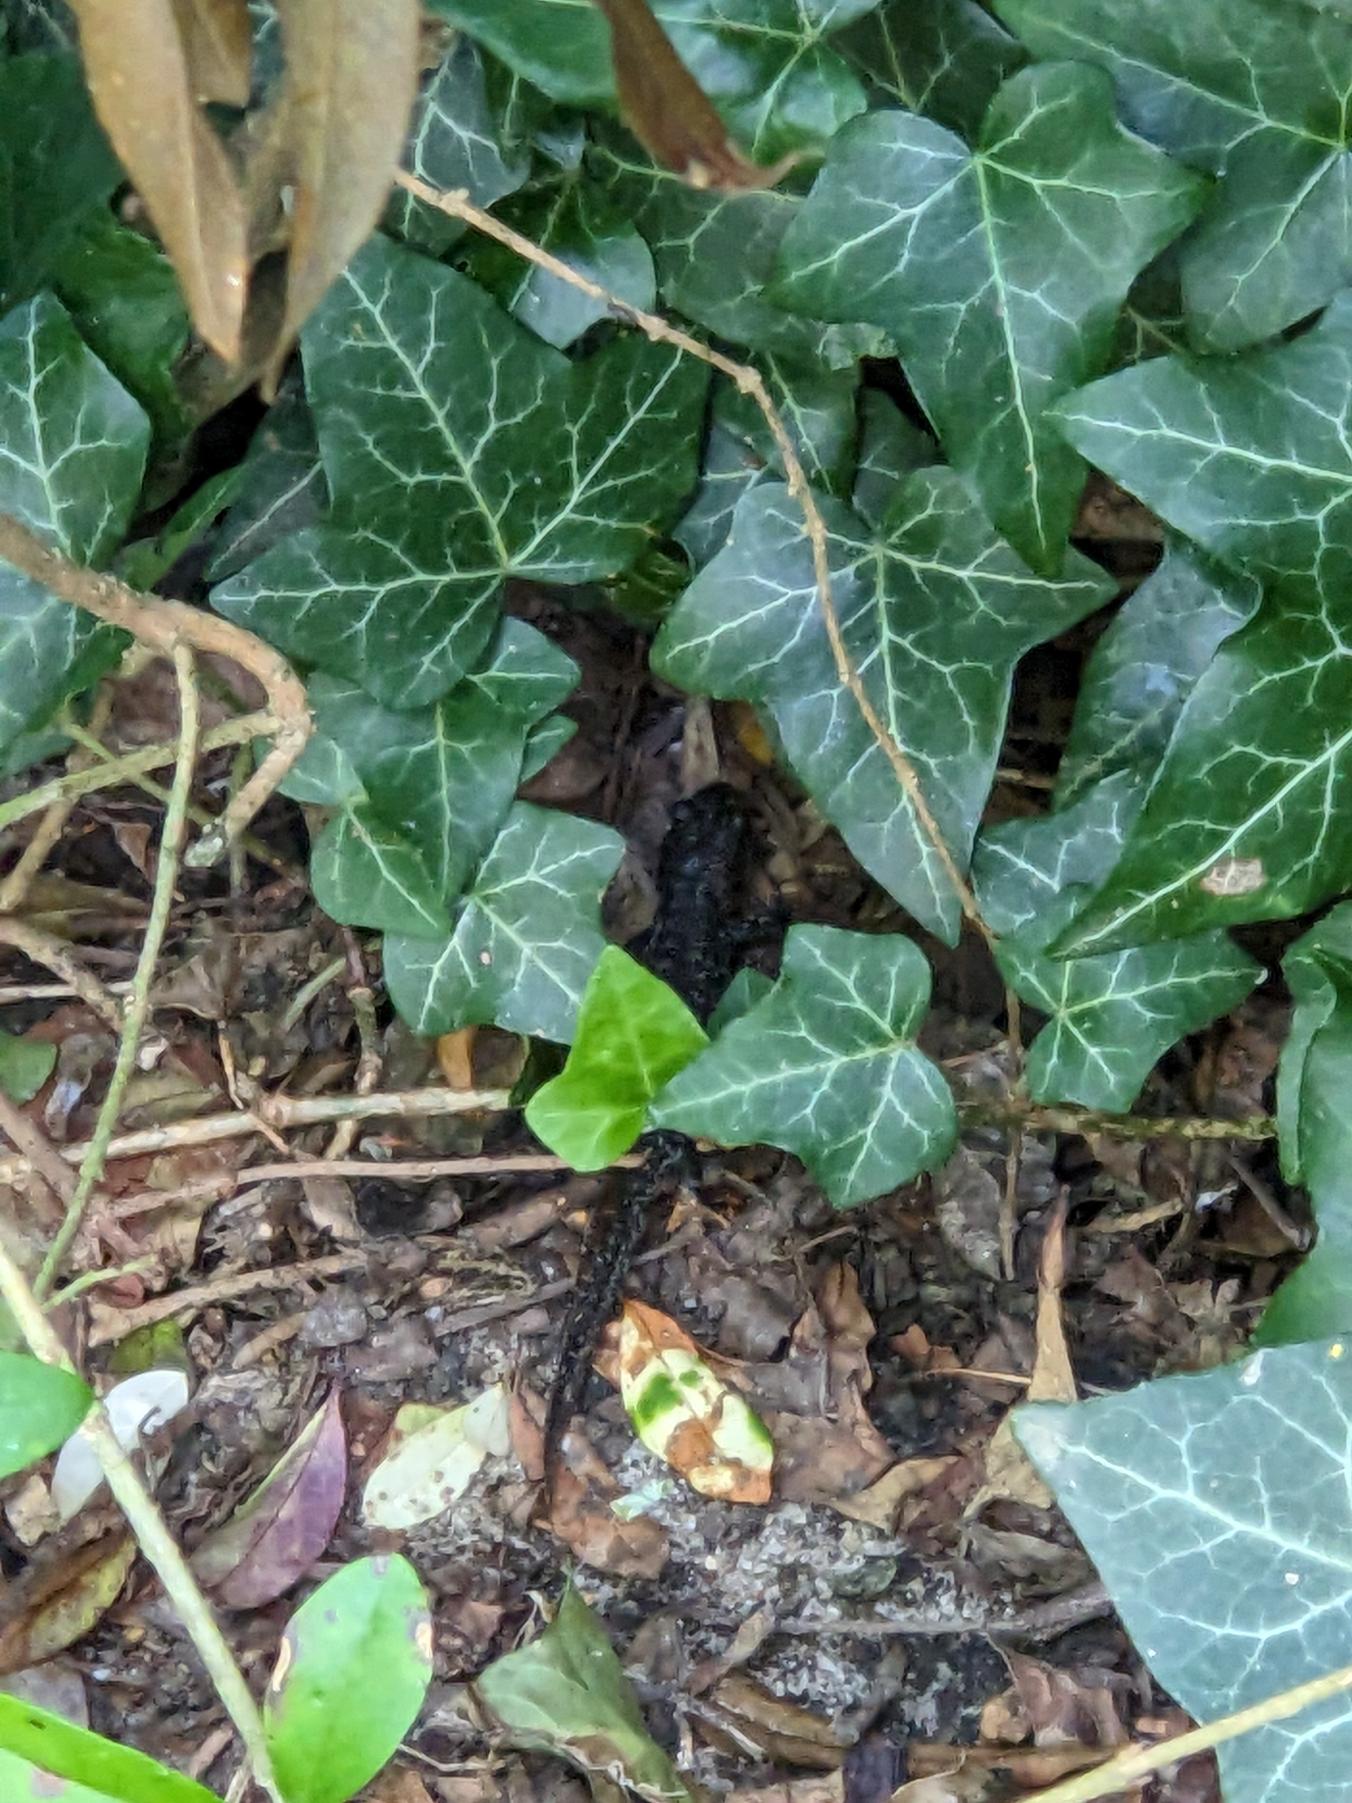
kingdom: Animalia
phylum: Chordata
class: Amphibia
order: Caudata
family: Salamandridae
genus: Triturus
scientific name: Triturus cristatus
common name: Stor vandsalamander
